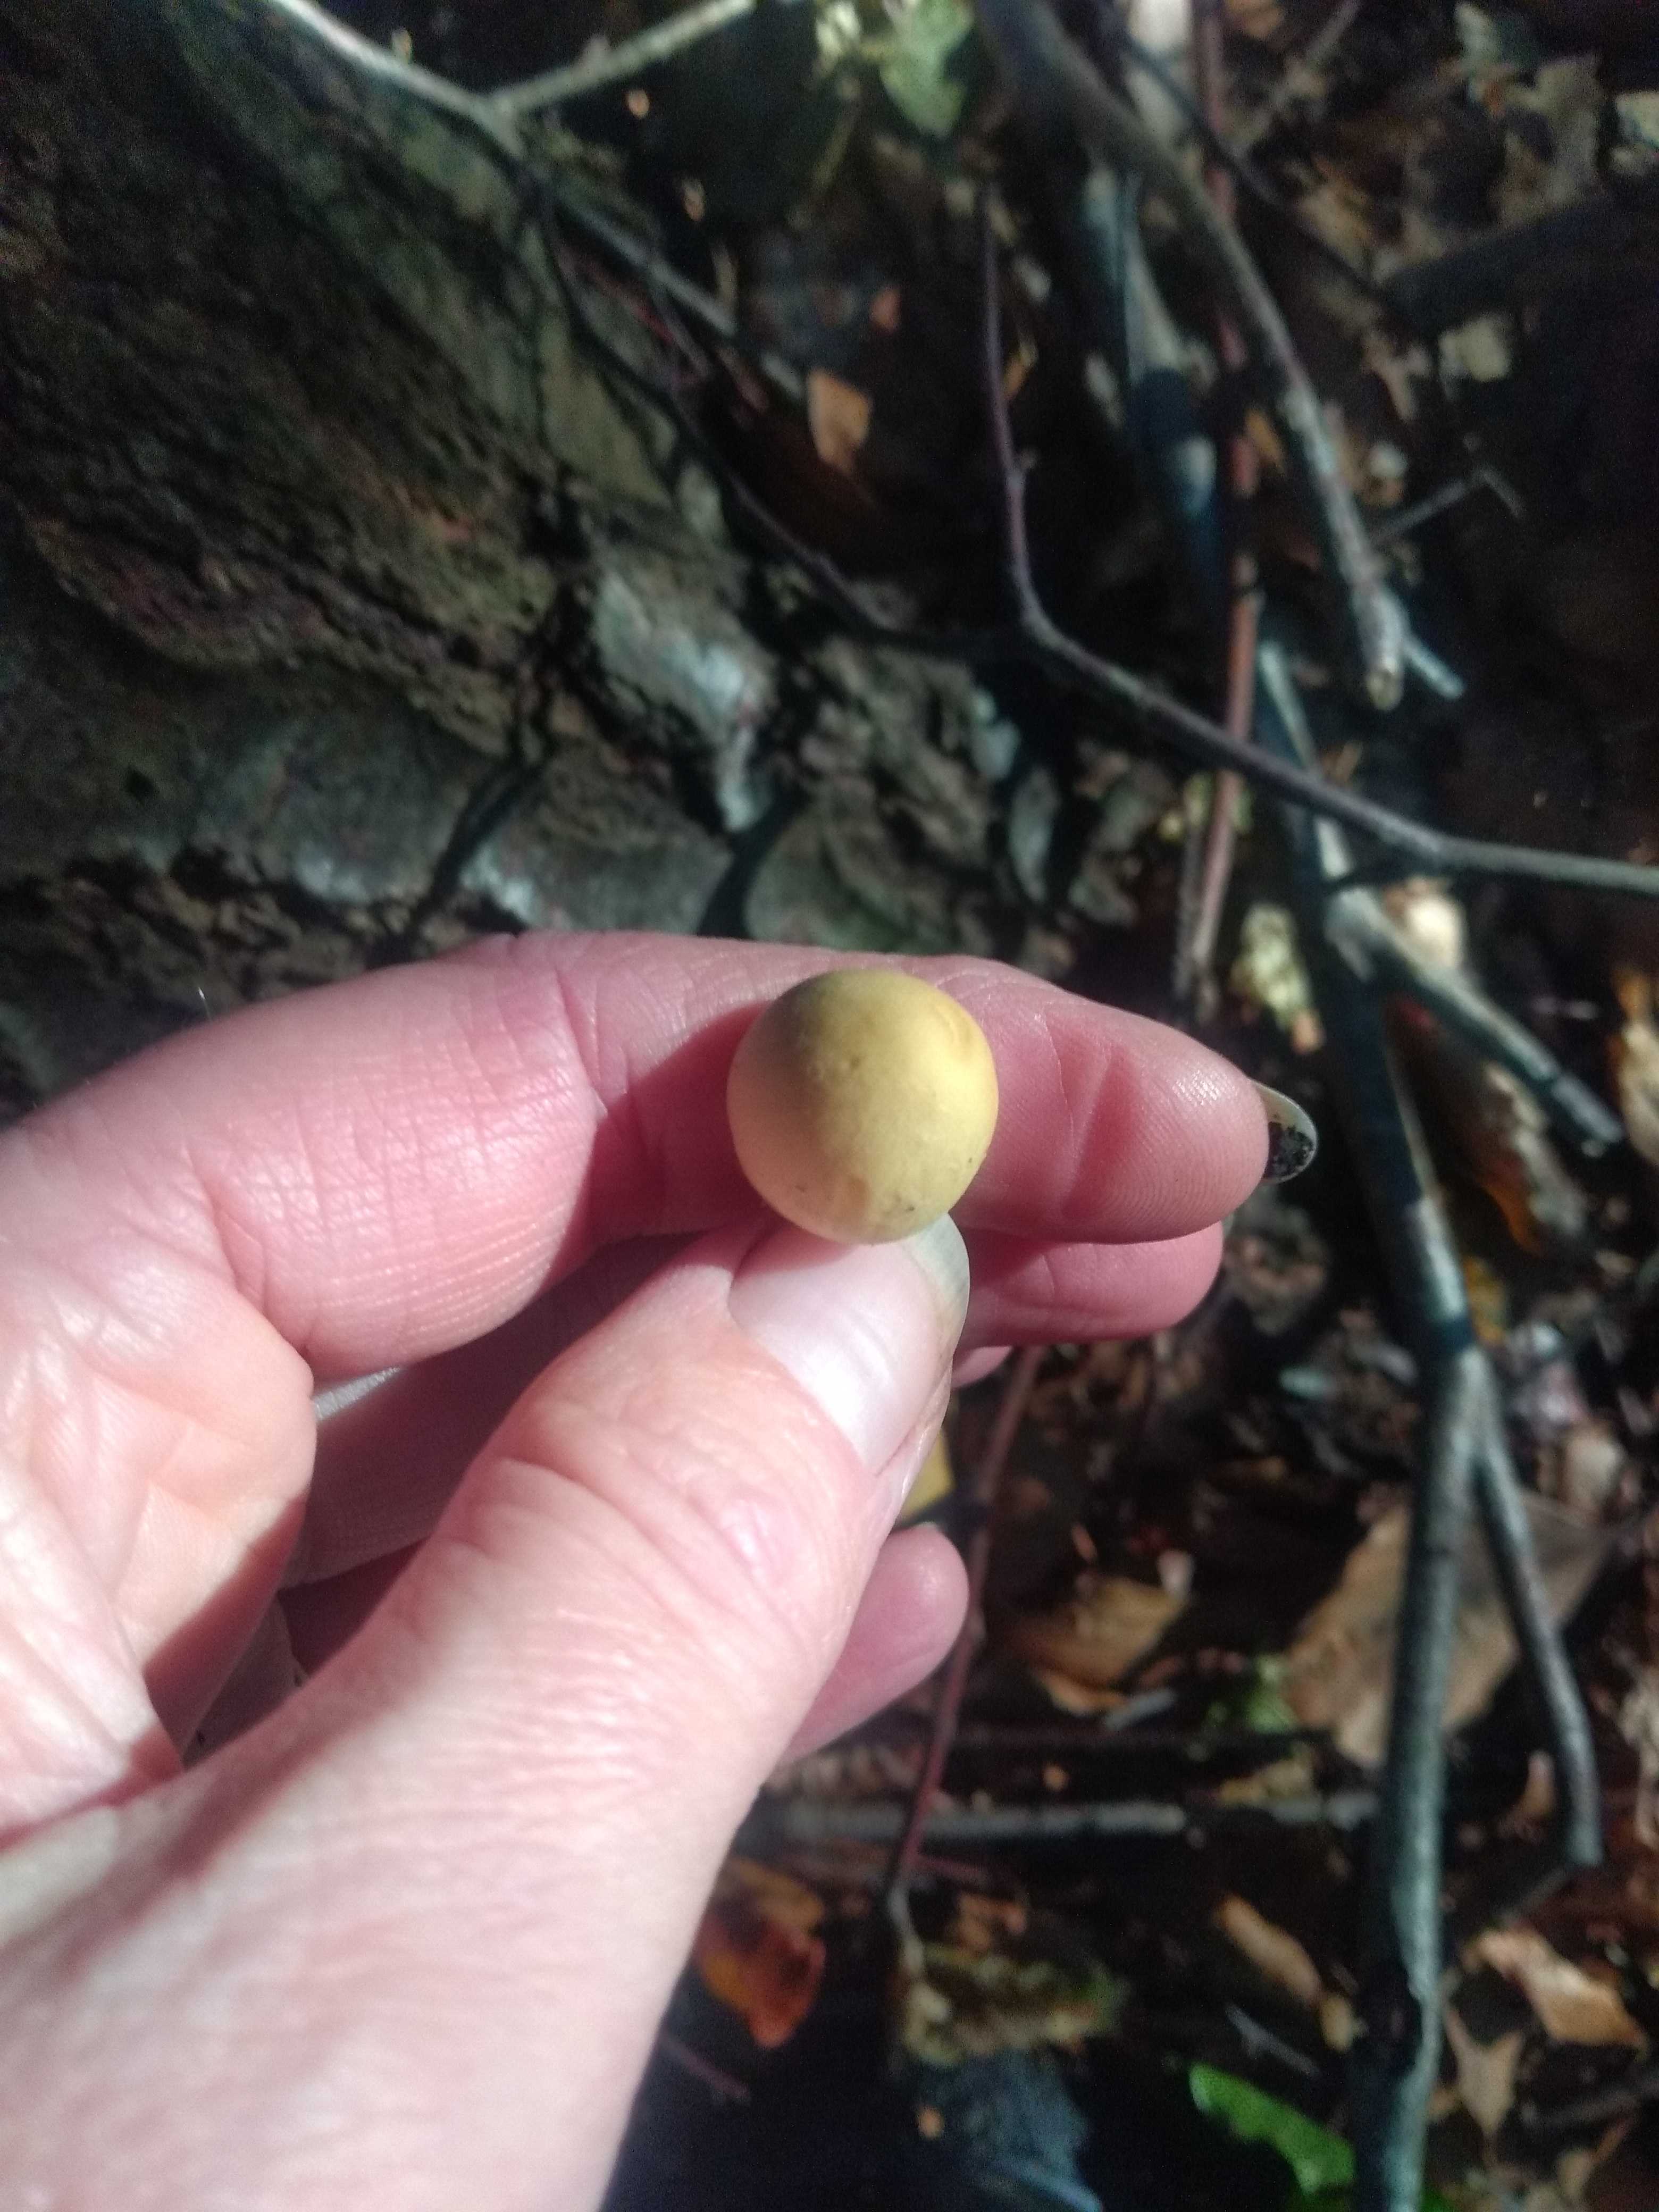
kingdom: Fungi
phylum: Basidiomycota
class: Agaricomycetes
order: Agaricales
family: Psathyrellaceae
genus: Candolleomyces
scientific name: Candolleomyces candolleanus
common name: Candolles mørkhat
